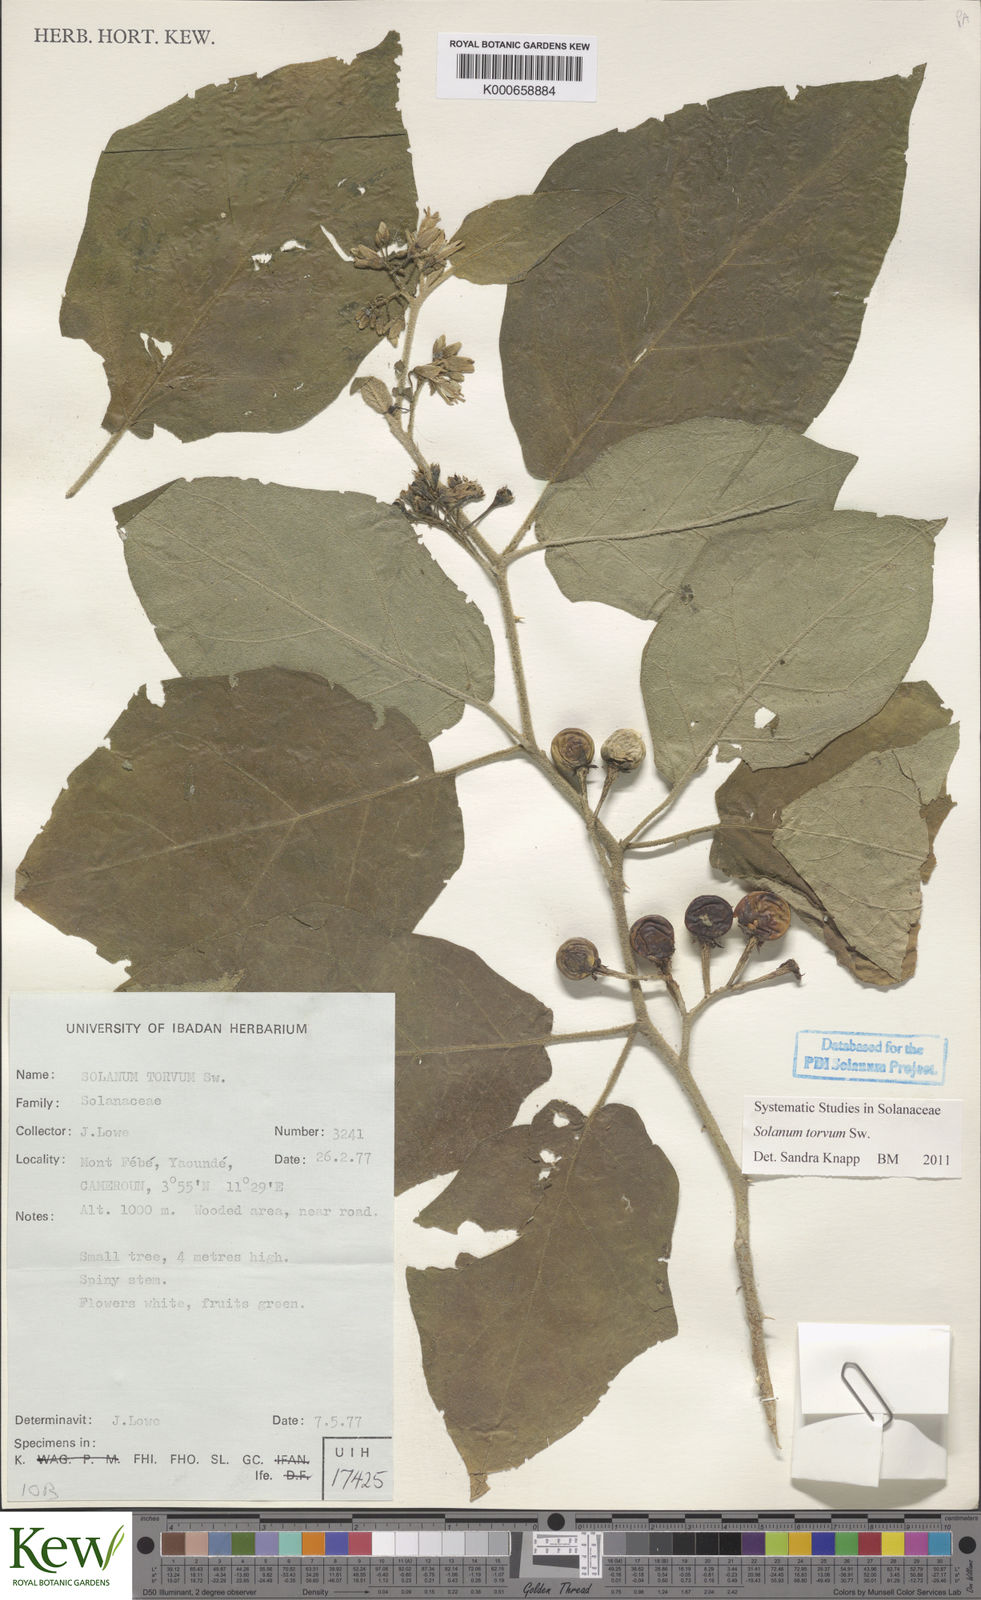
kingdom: Plantae
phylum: Tracheophyta
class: Magnoliopsida
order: Solanales
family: Solanaceae
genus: Solanum
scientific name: Solanum torvum
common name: Turkey berry
